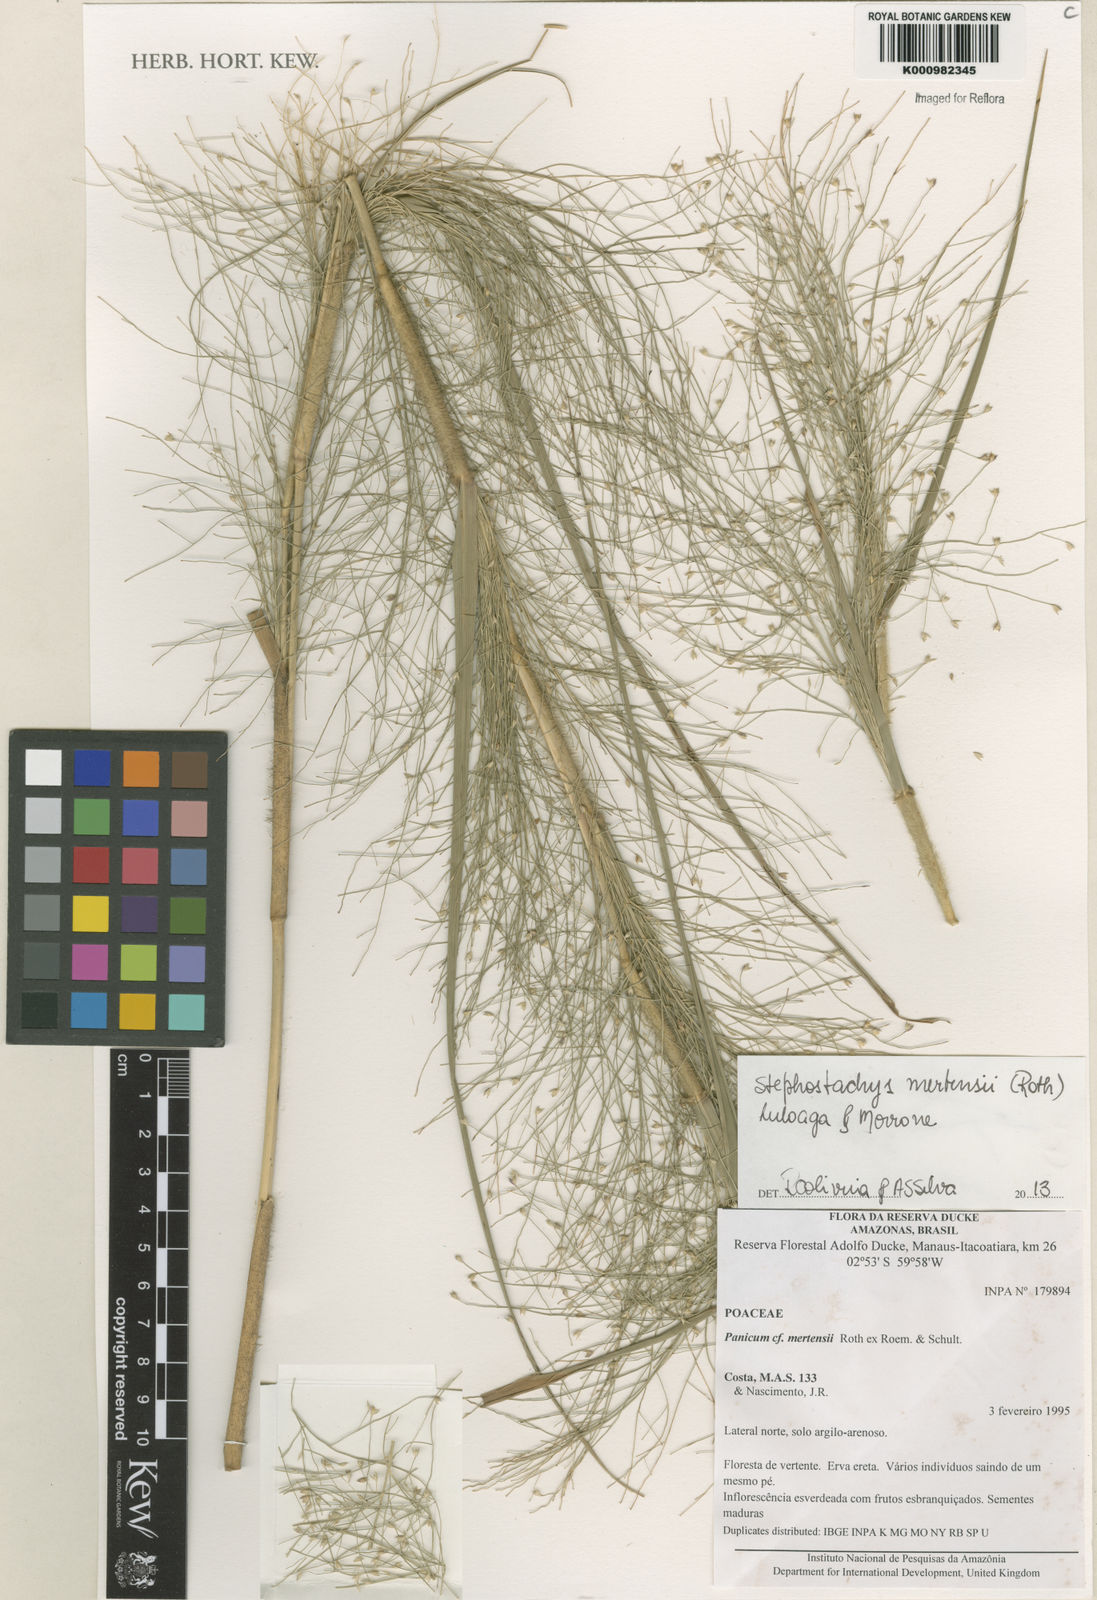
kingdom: Plantae
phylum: Tracheophyta
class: Liliopsida
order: Poales
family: Poaceae
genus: Stephostachys
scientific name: Stephostachys mertensii
